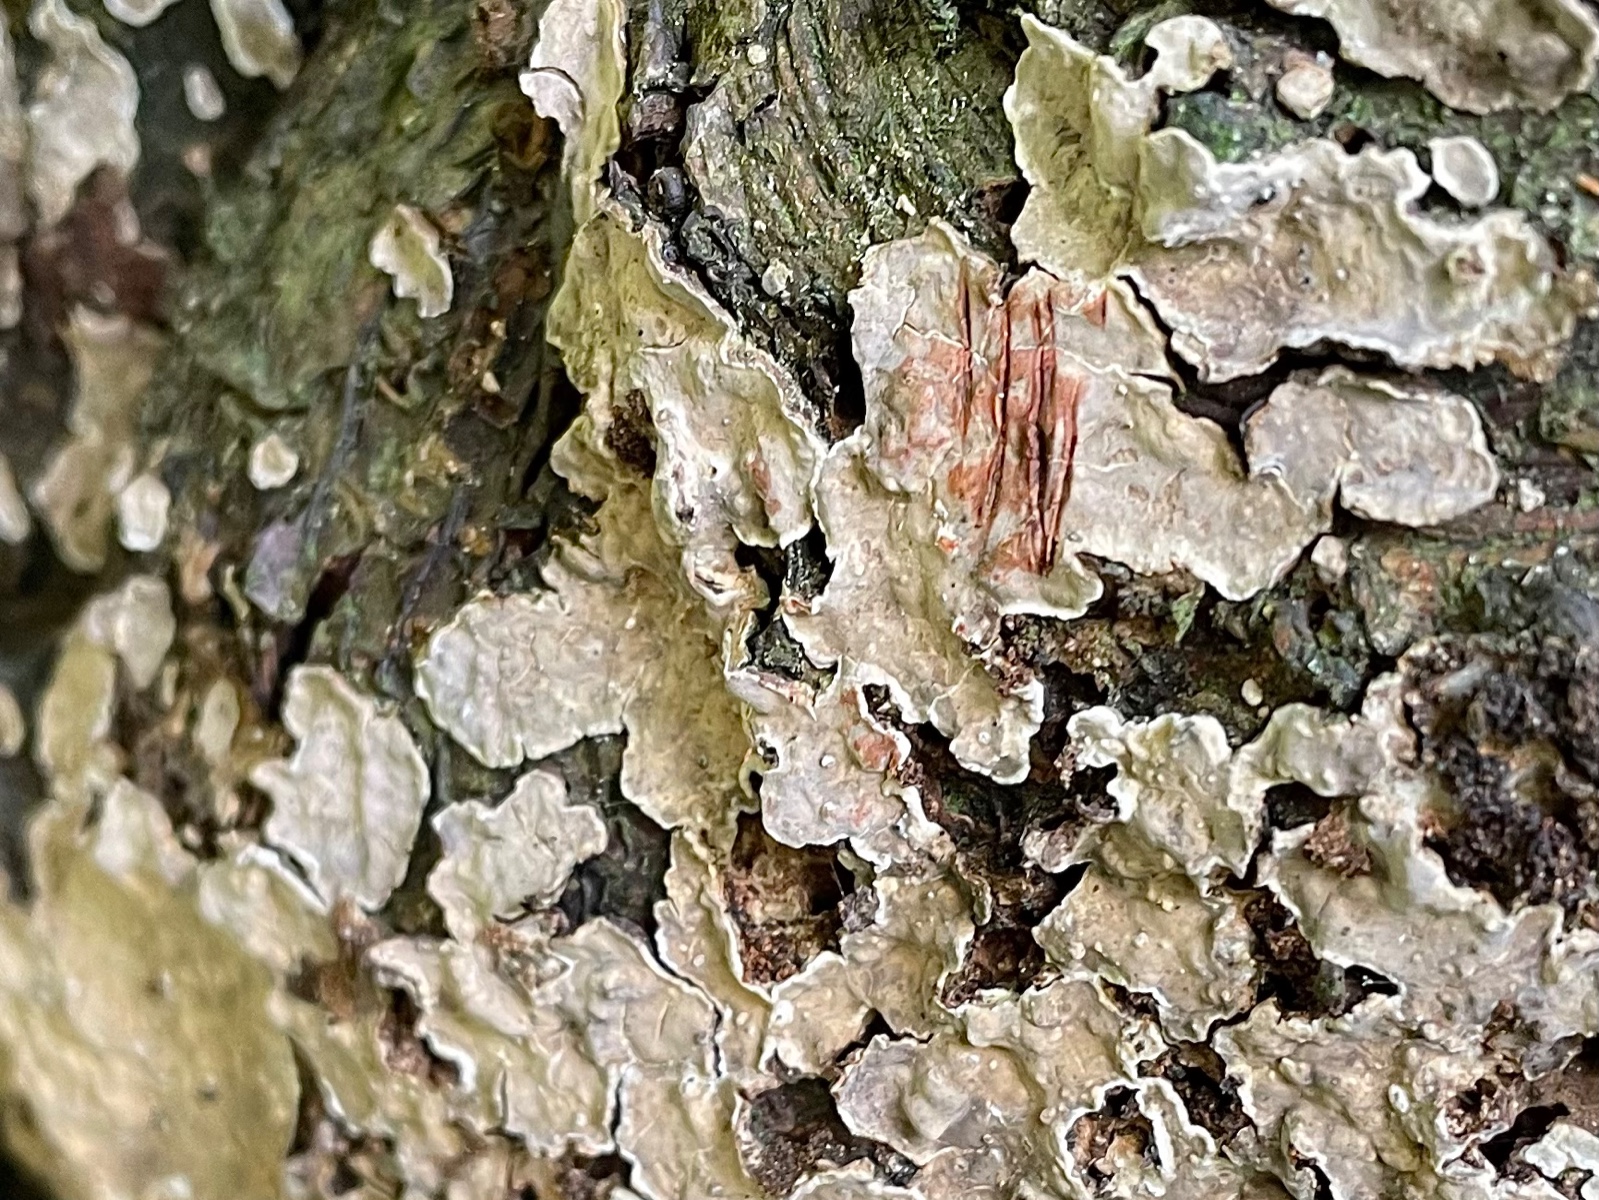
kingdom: Fungi
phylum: Basidiomycota
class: Agaricomycetes
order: Russulales
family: Stereaceae
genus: Stereum
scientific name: Stereum rugosum
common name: rynket lædersvamp
